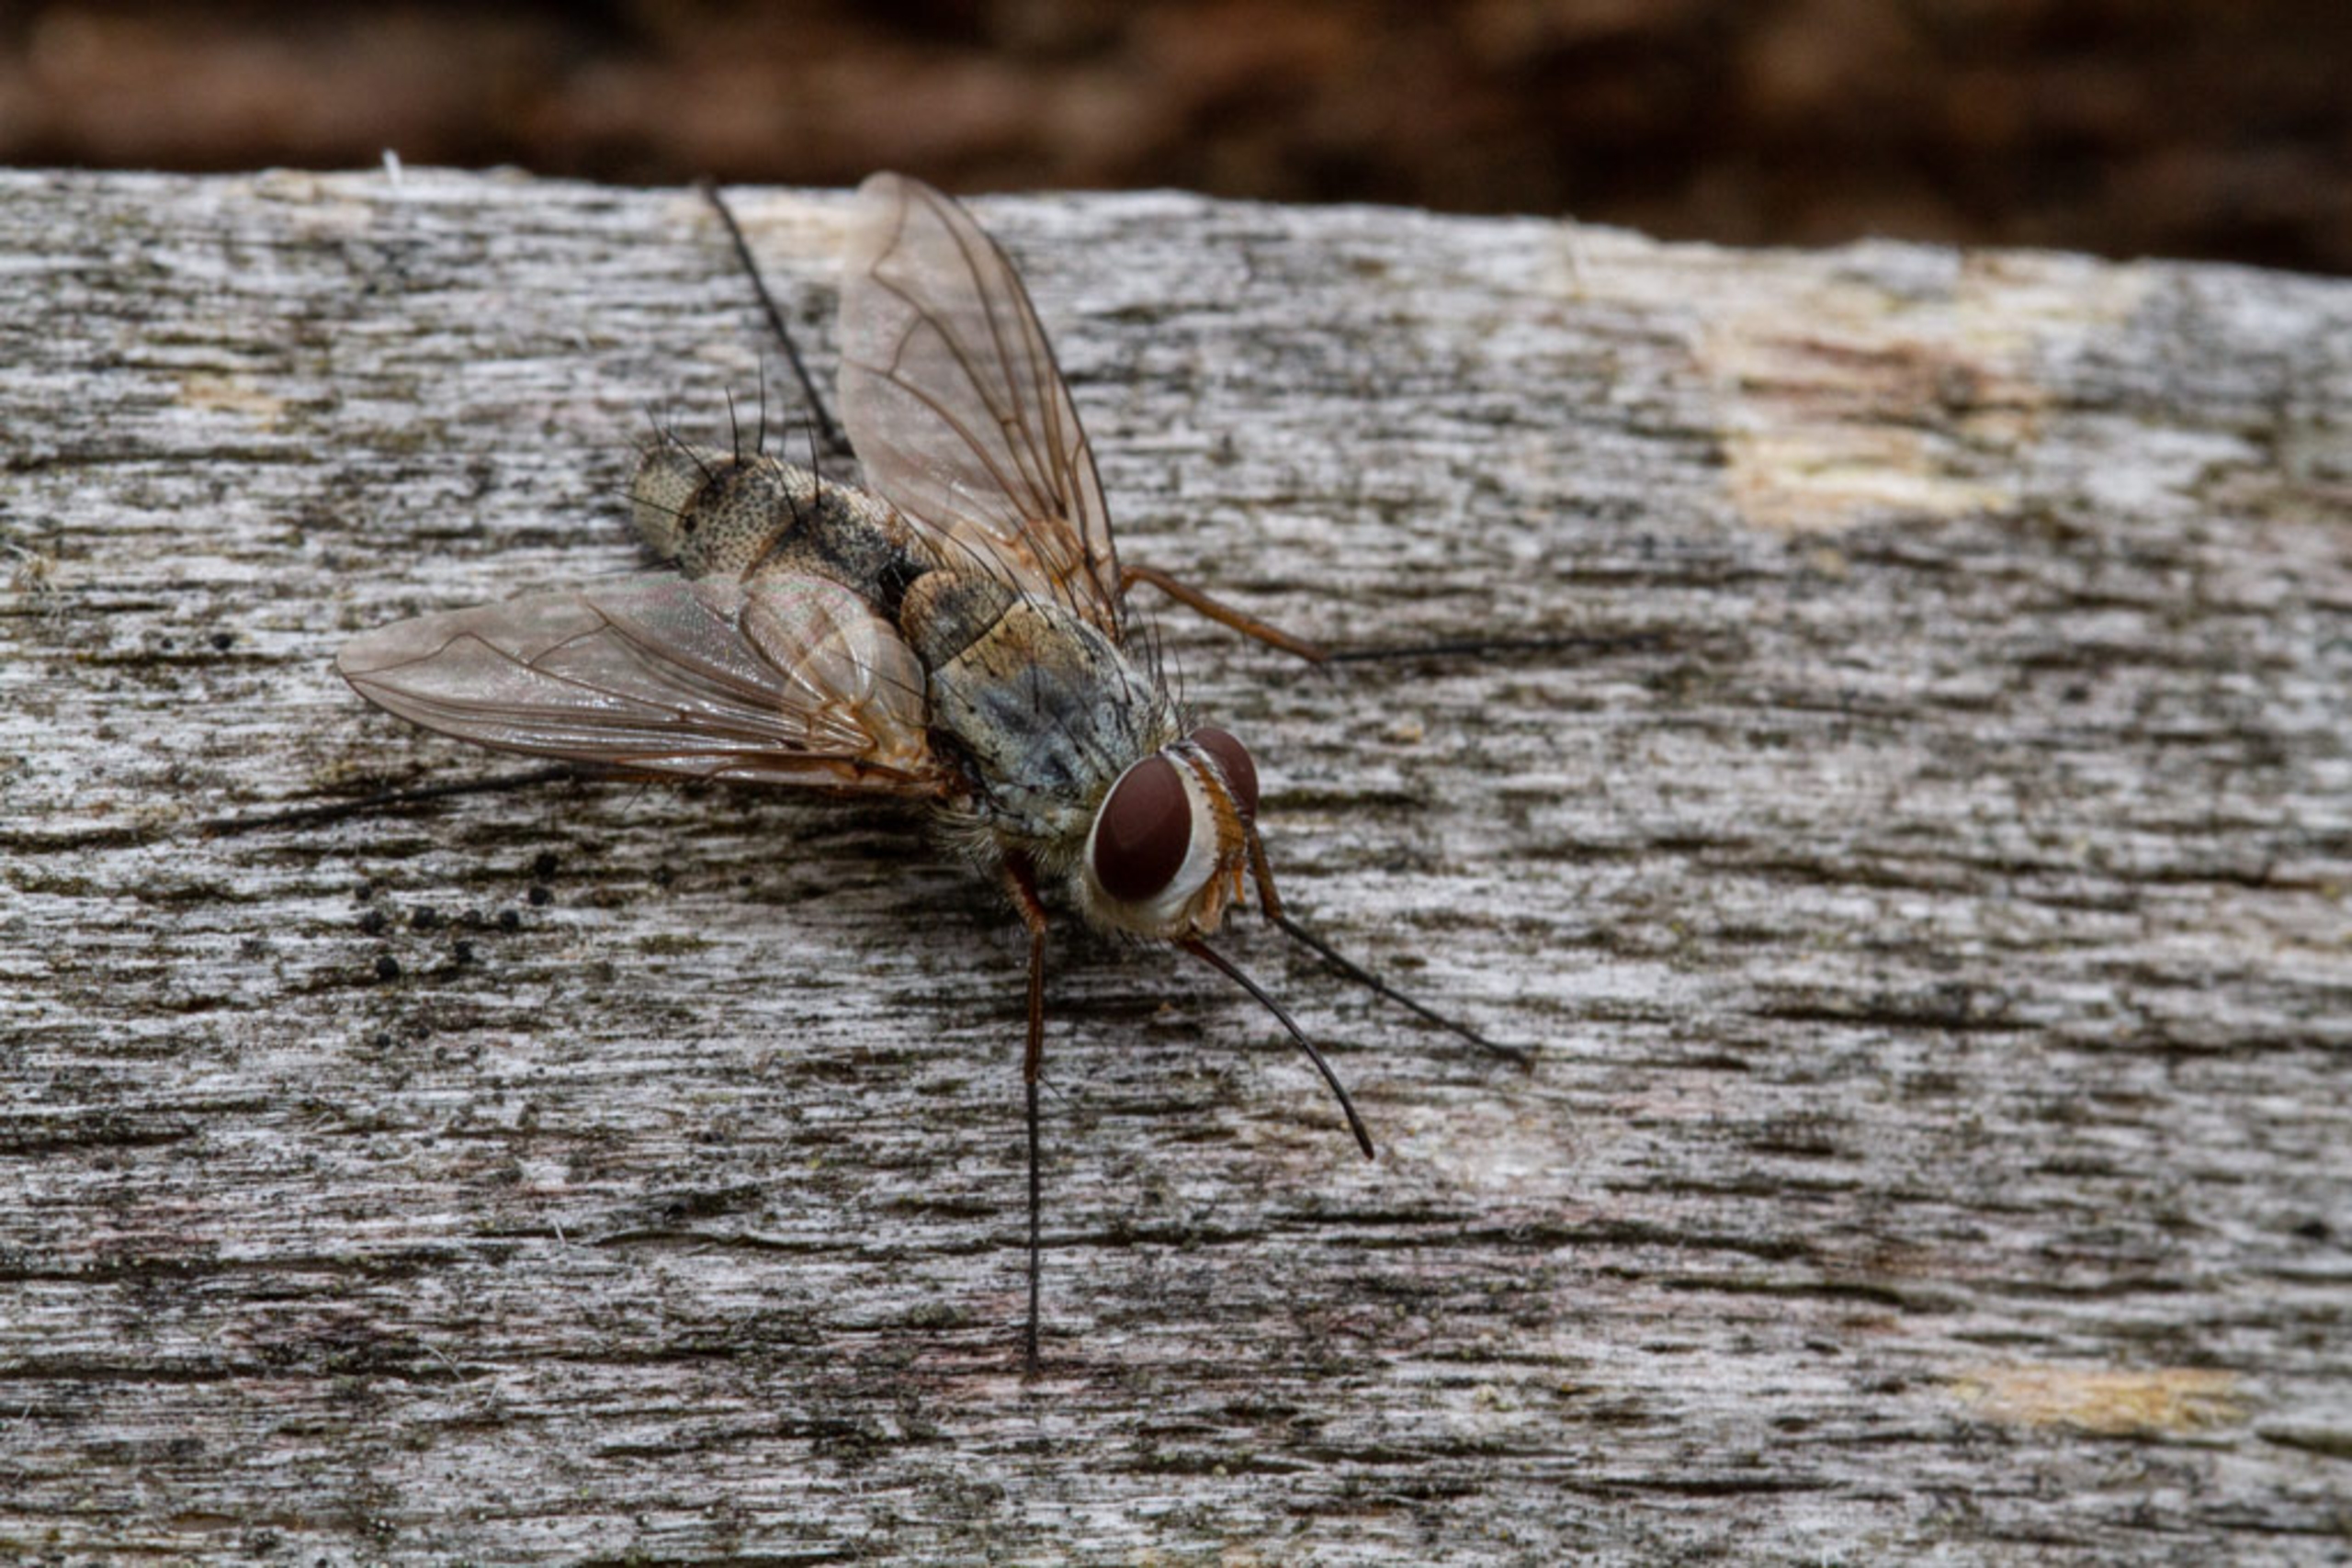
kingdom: Animalia
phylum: Arthropoda
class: Insecta
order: Diptera
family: Tachinidae
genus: Prosena
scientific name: Prosena siberita
